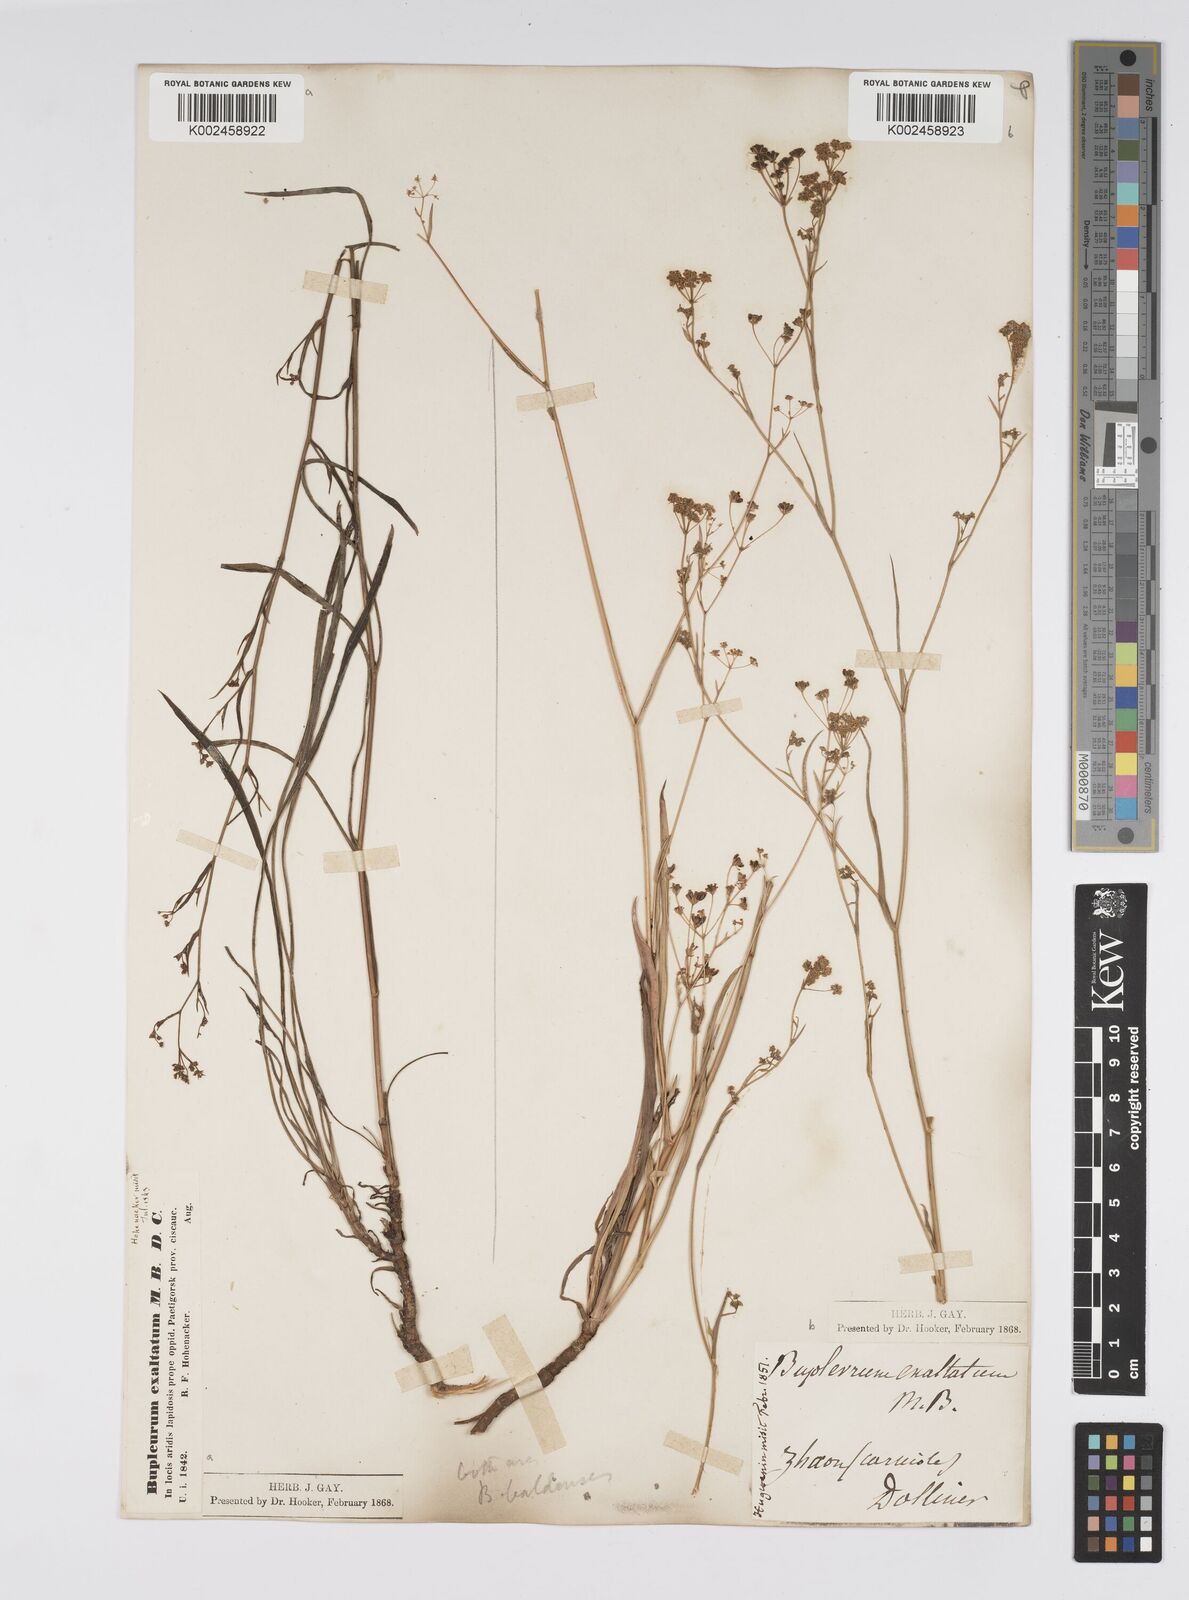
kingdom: Plantae
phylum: Tracheophyta
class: Magnoliopsida
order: Apiales
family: Apiaceae
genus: Bupleurum
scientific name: Bupleurum falcatum
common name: Sickle-leaved hare's-ear
